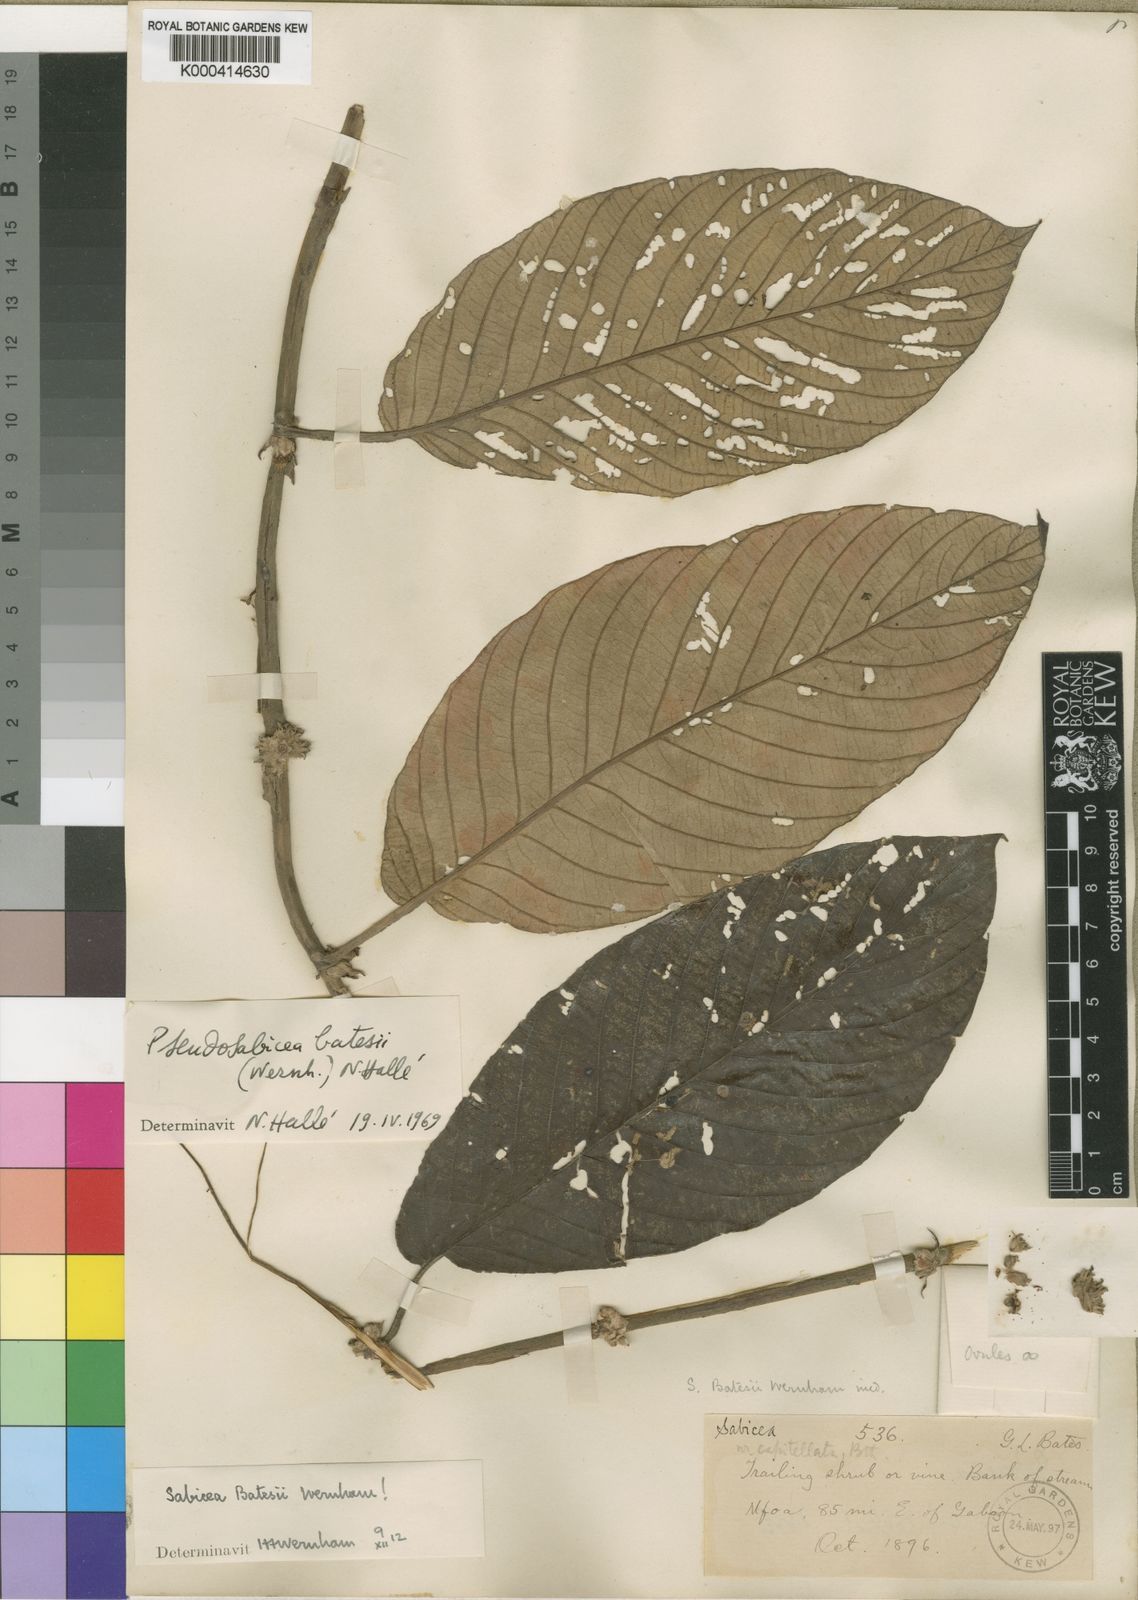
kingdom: Plantae
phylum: Tracheophyta
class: Magnoliopsida
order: Gentianales
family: Rubiaceae
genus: Sabicea
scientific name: Sabicea batesii
